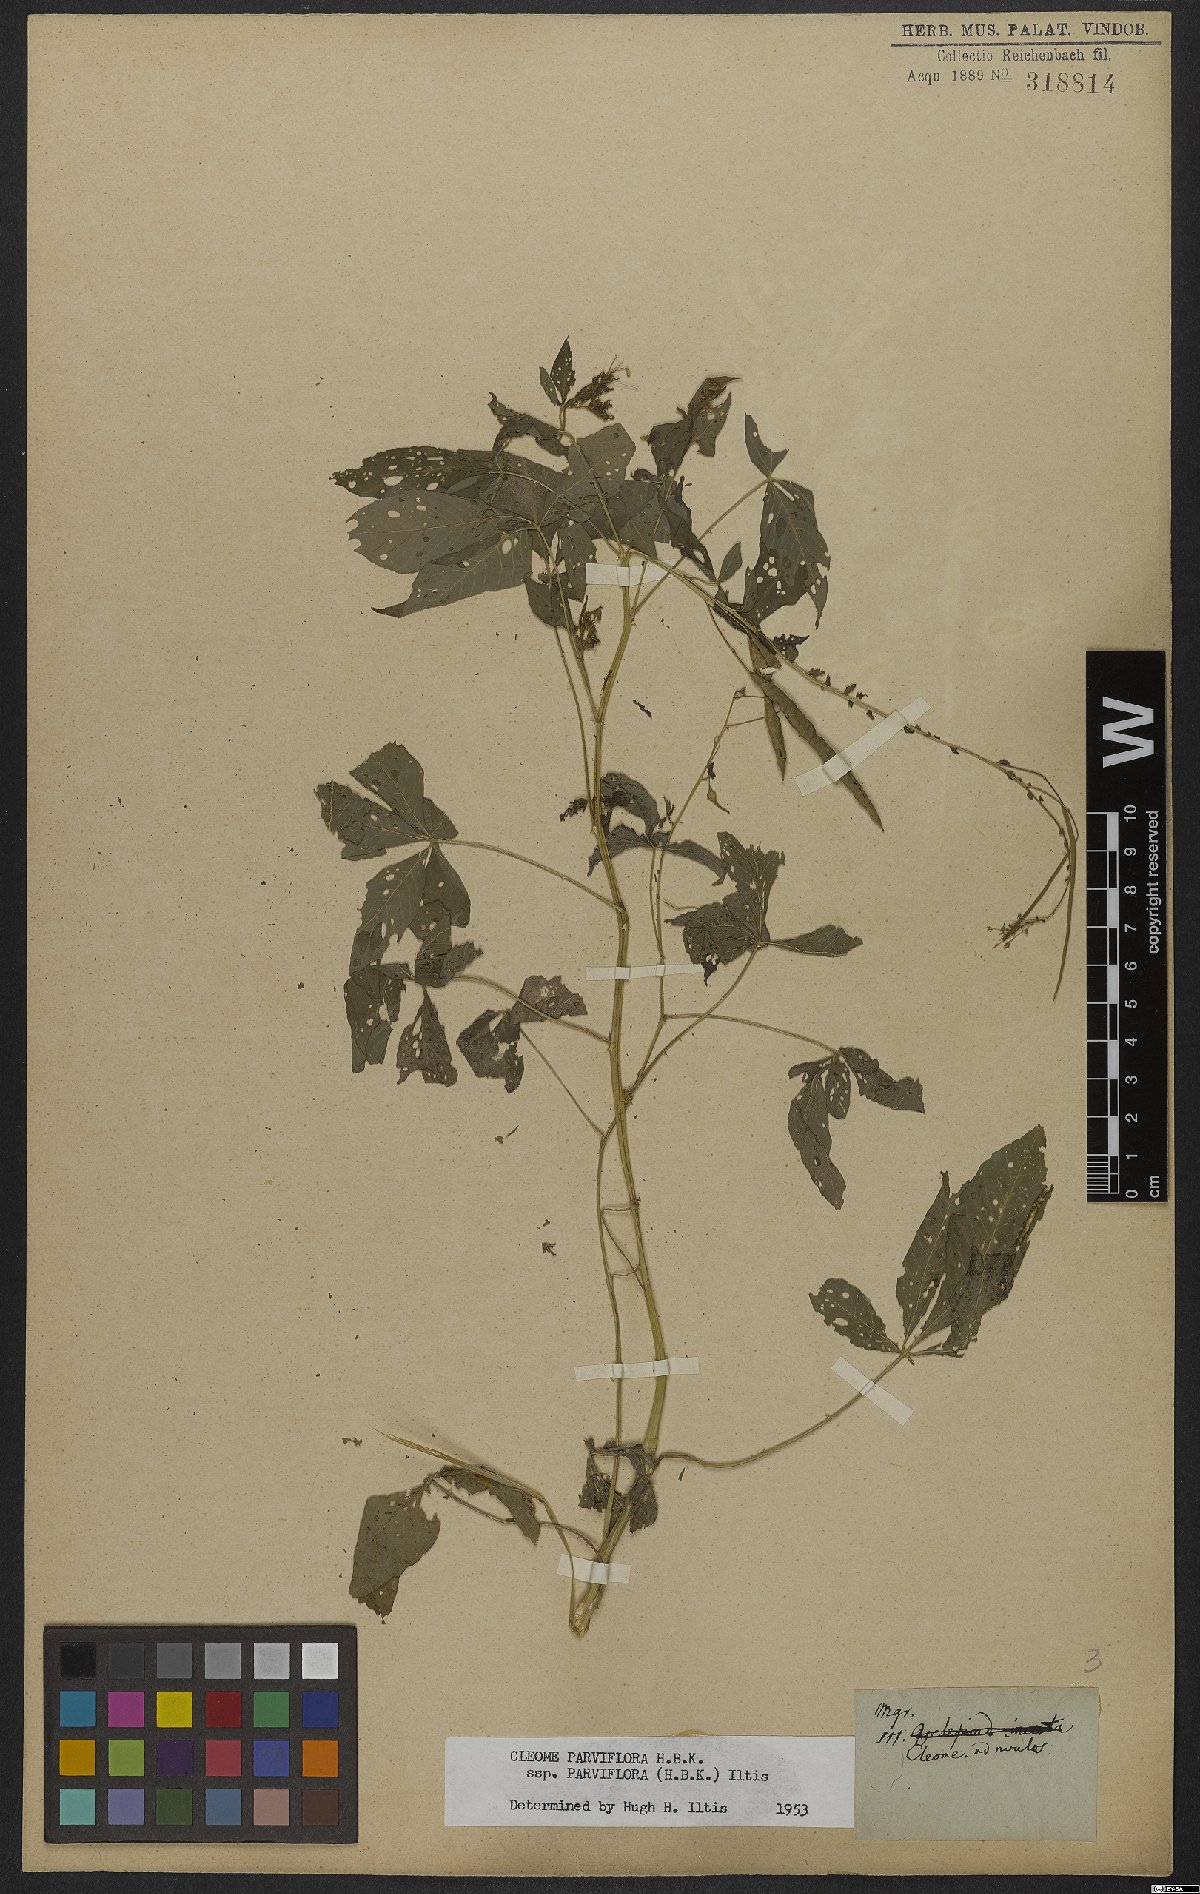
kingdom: Plantae
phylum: Tracheophyta
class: Magnoliopsida
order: Brassicales
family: Cleomaceae
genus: Tarenaya
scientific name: Tarenaya parviflora
